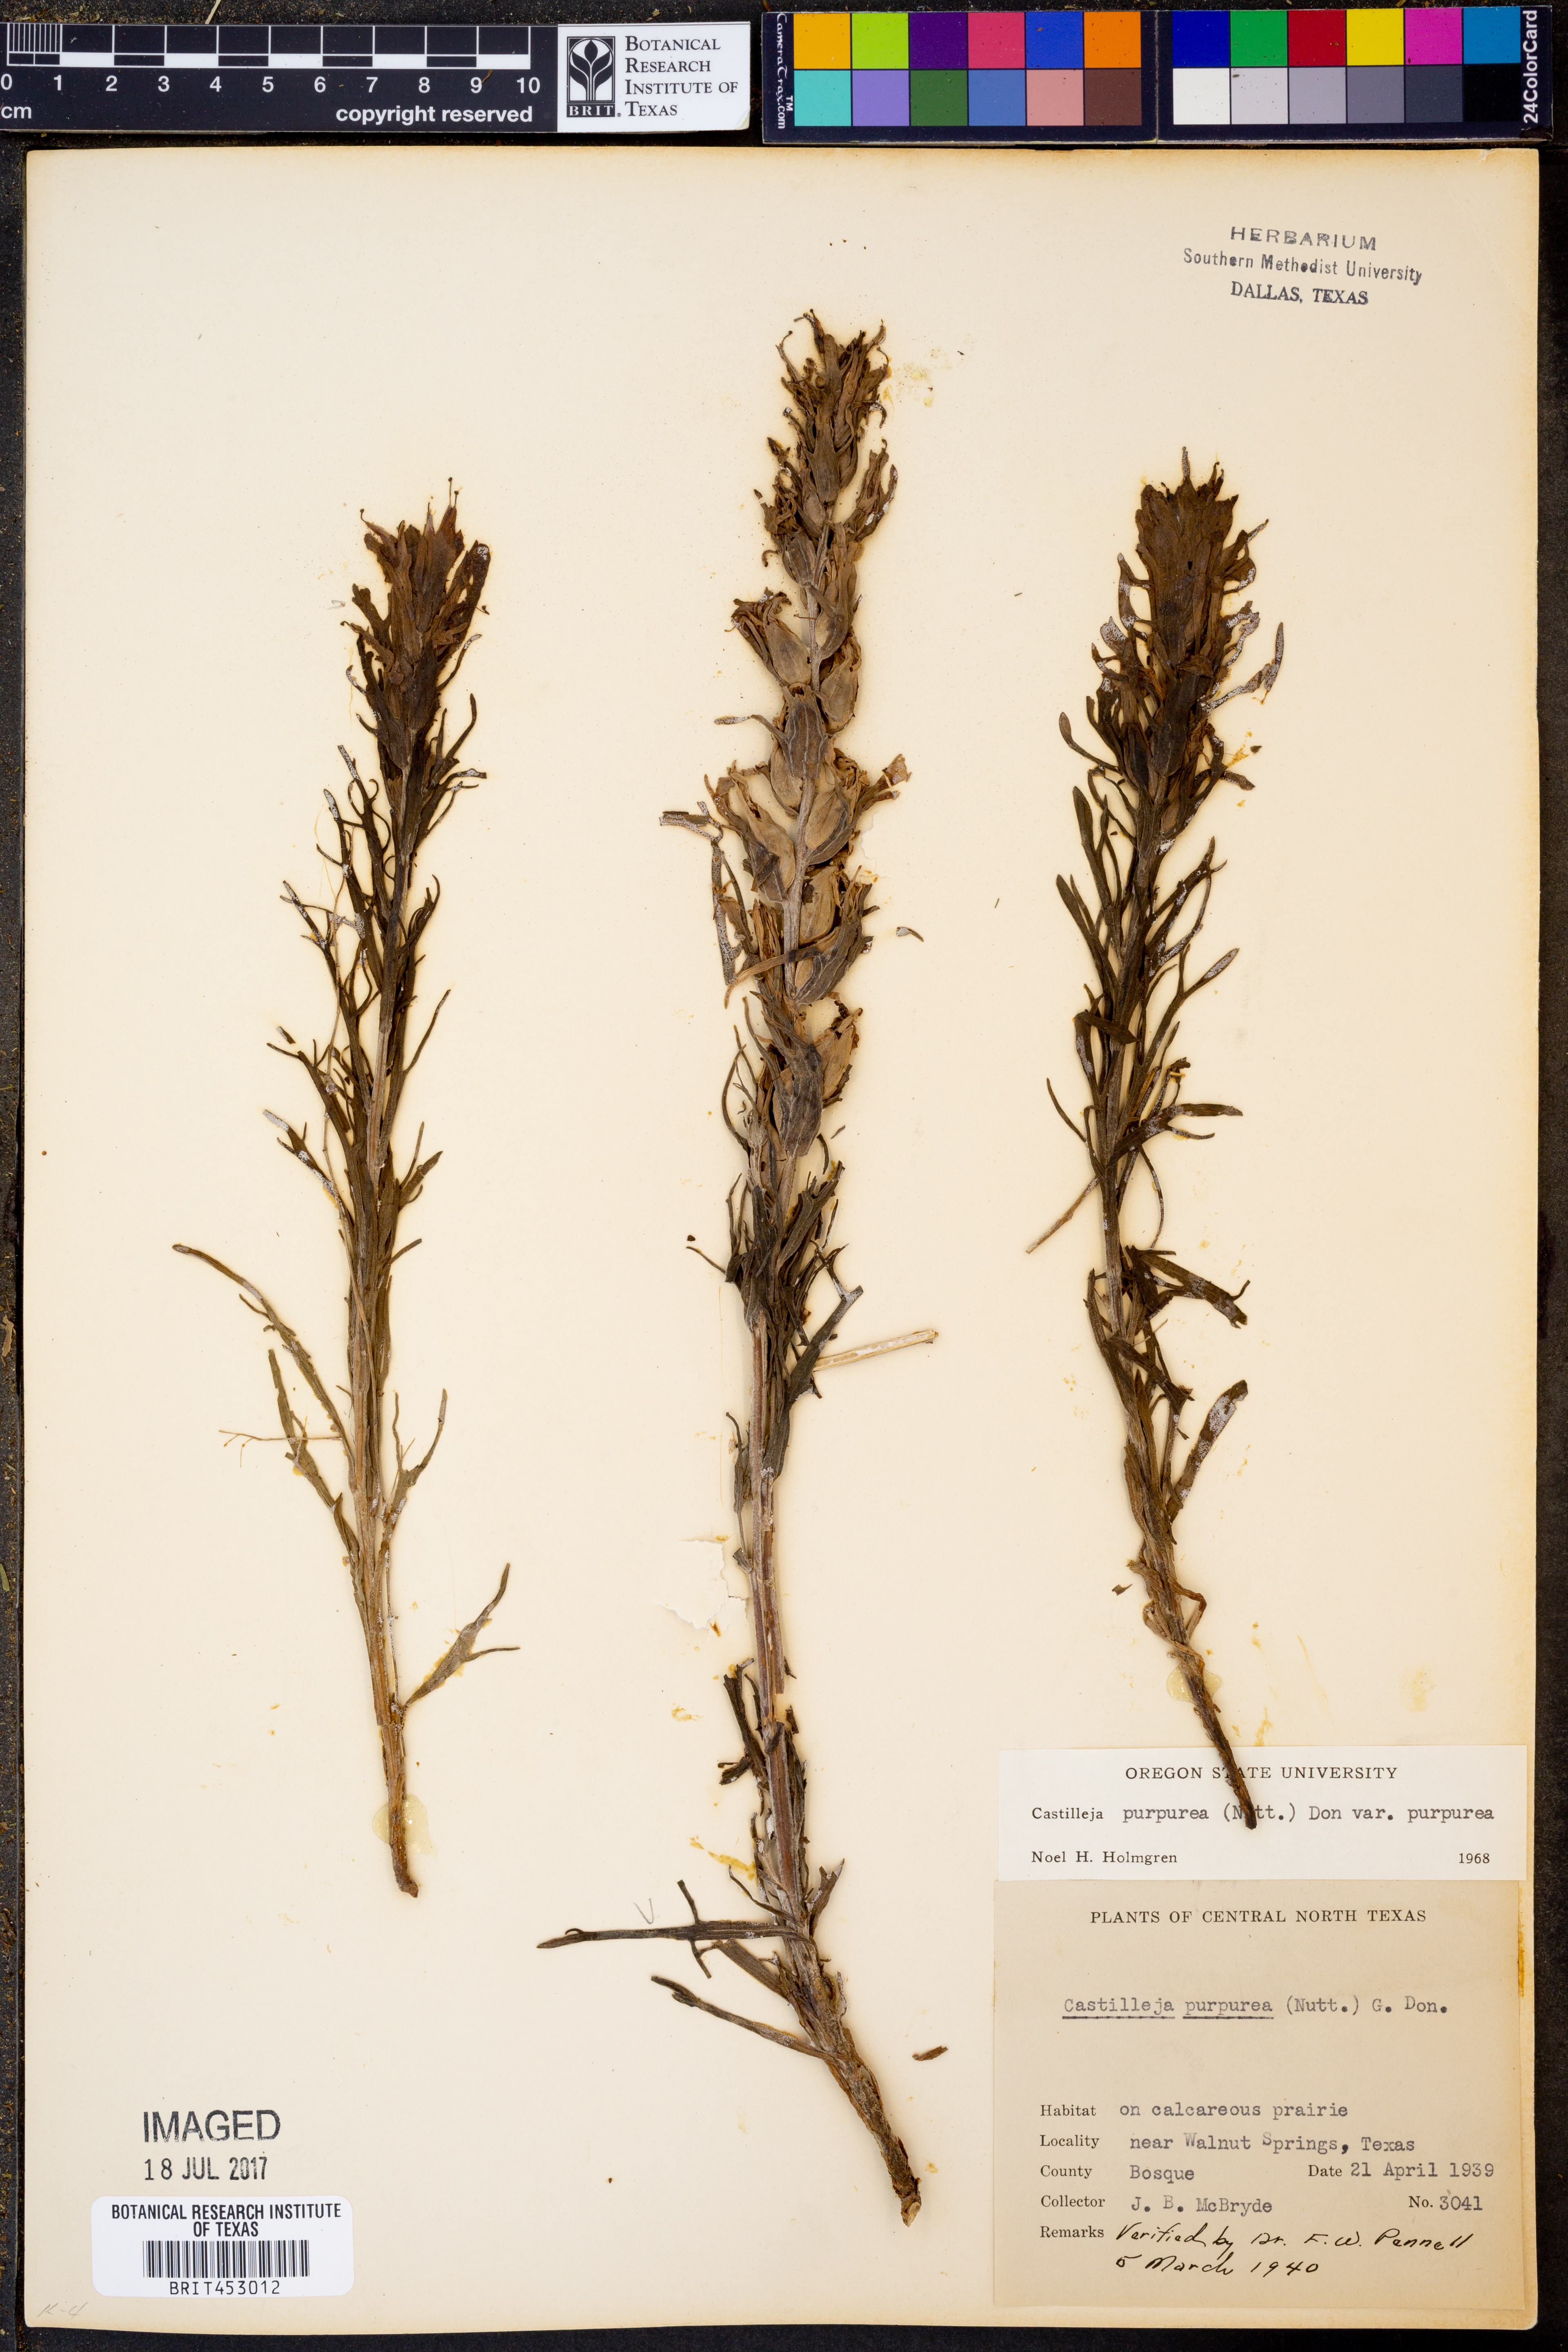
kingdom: Plantae
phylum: Tracheophyta
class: Magnoliopsida
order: Lamiales
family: Orobanchaceae
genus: Castilleja
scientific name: Castilleja purpurea
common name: Plains paintbrush
